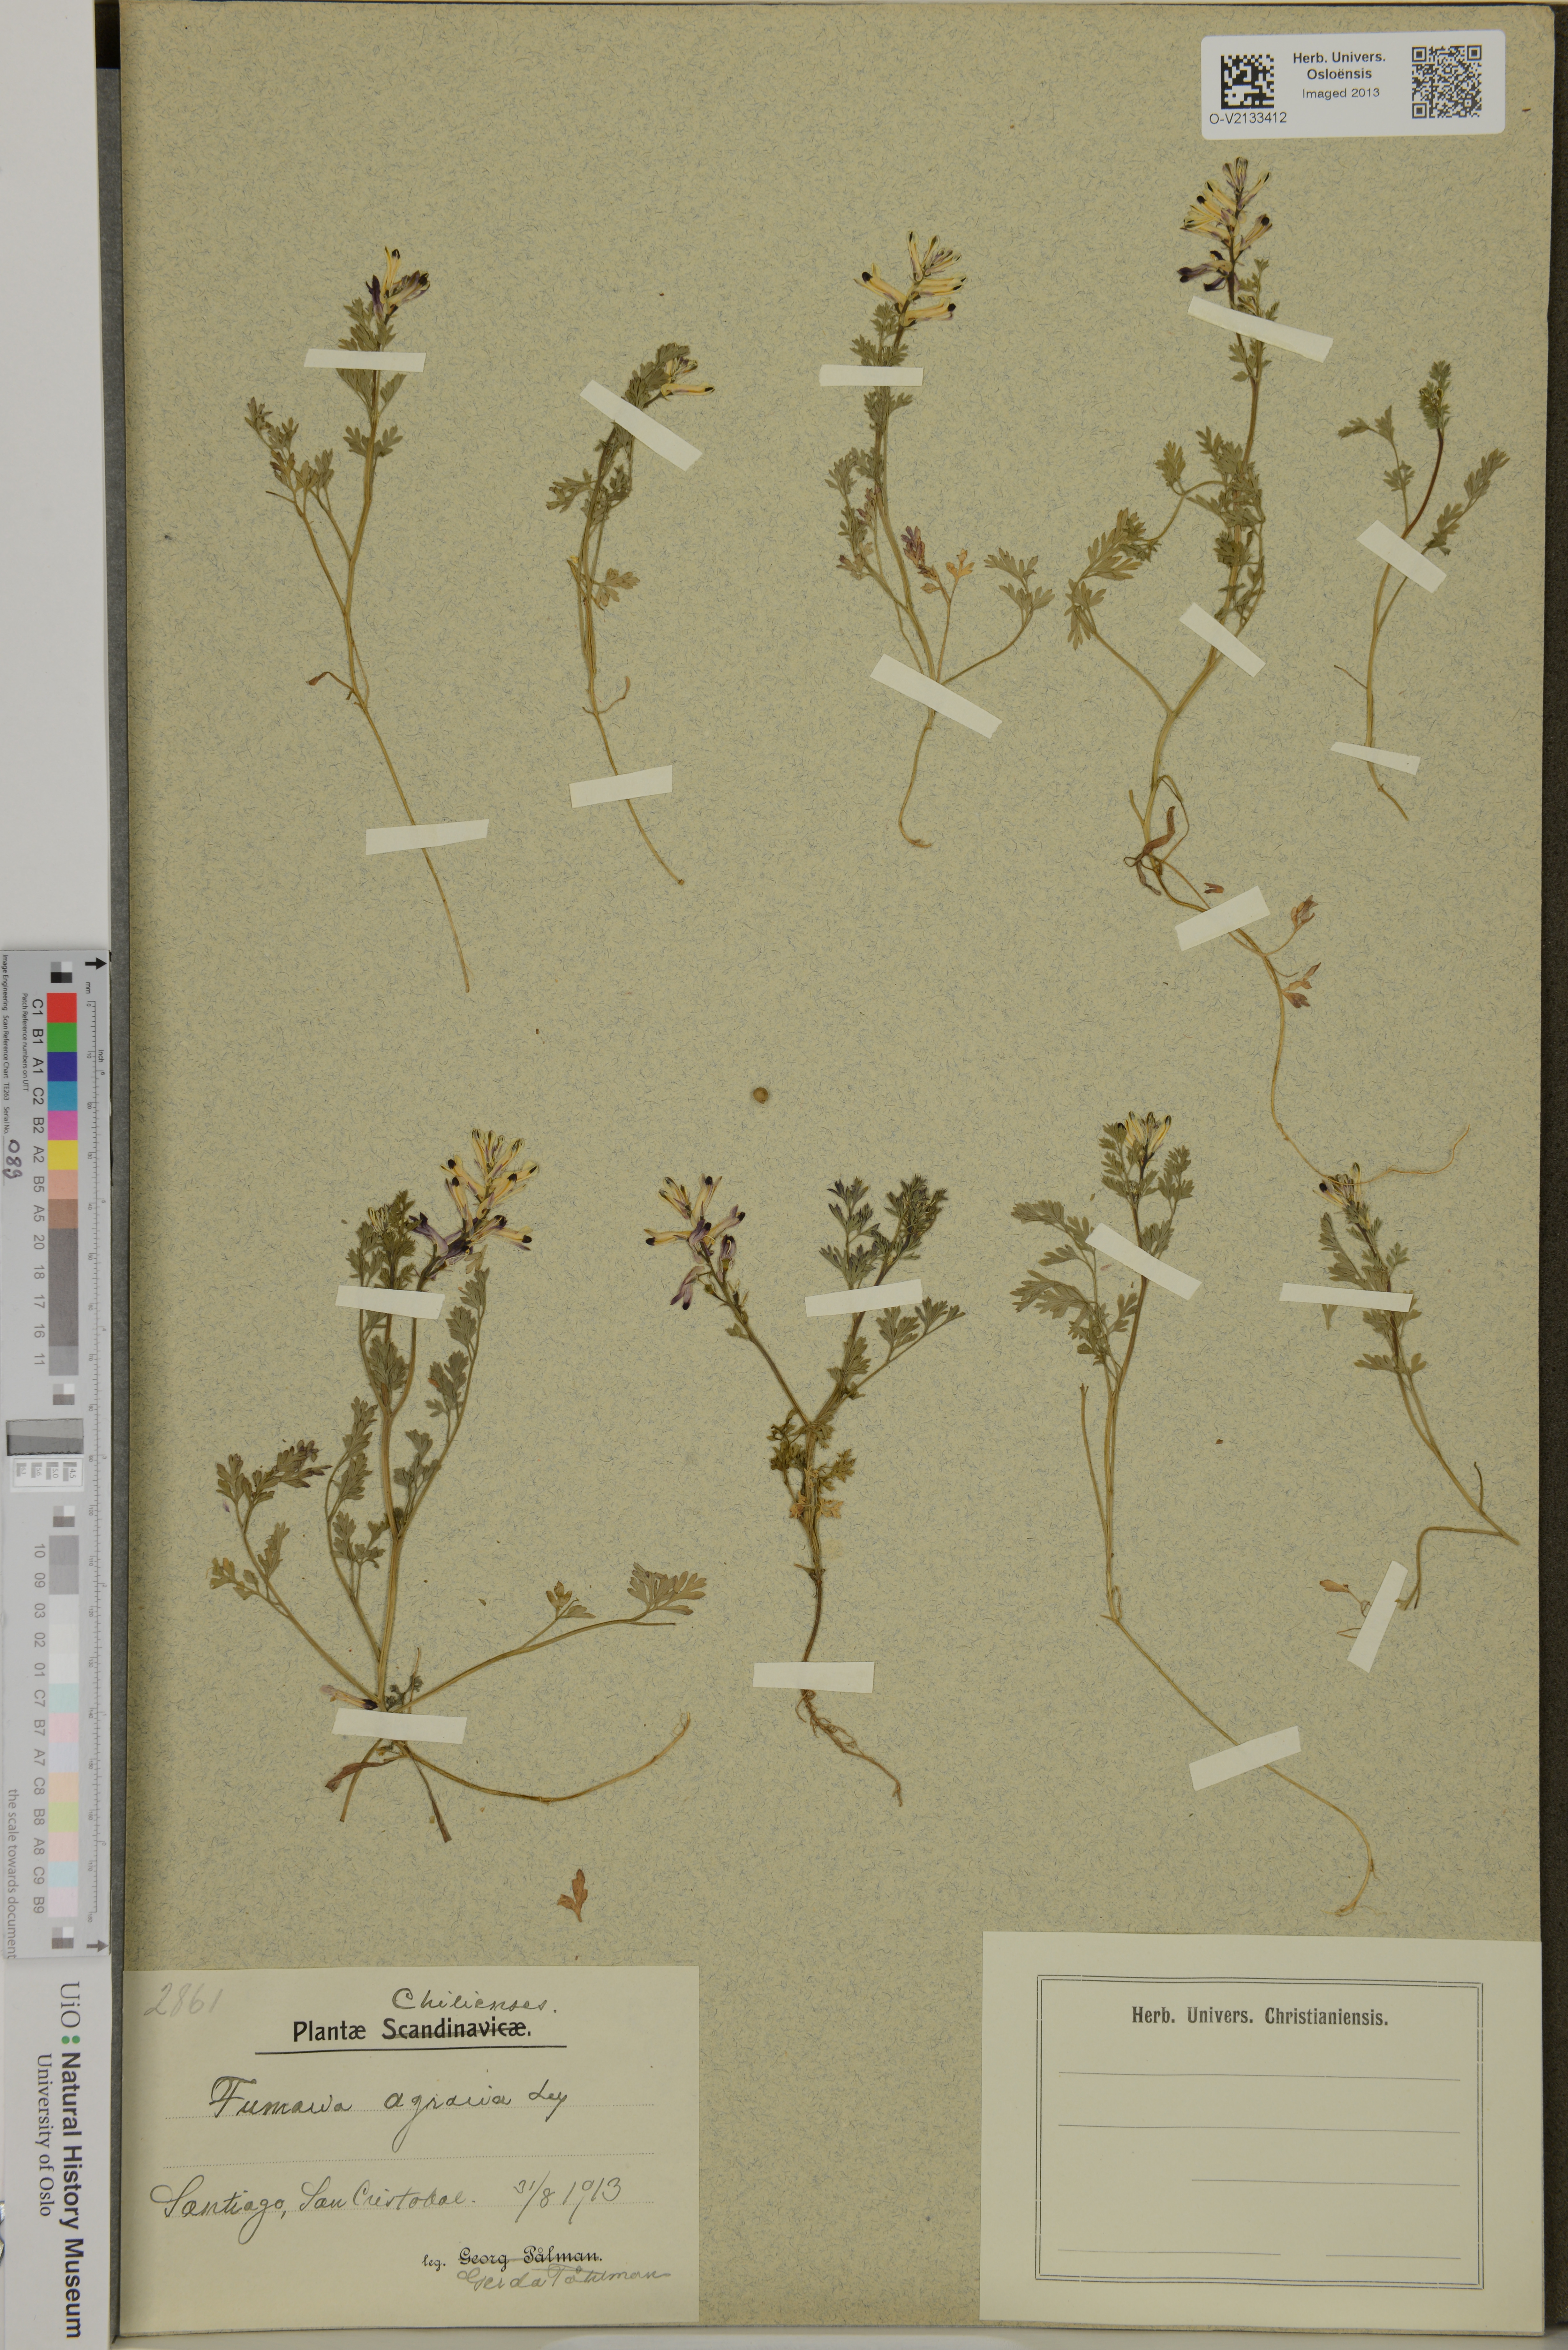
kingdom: Plantae
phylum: Tracheophyta
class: Magnoliopsida
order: Ranunculales
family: Papaveraceae
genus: Fumaria
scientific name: Fumaria agraria
